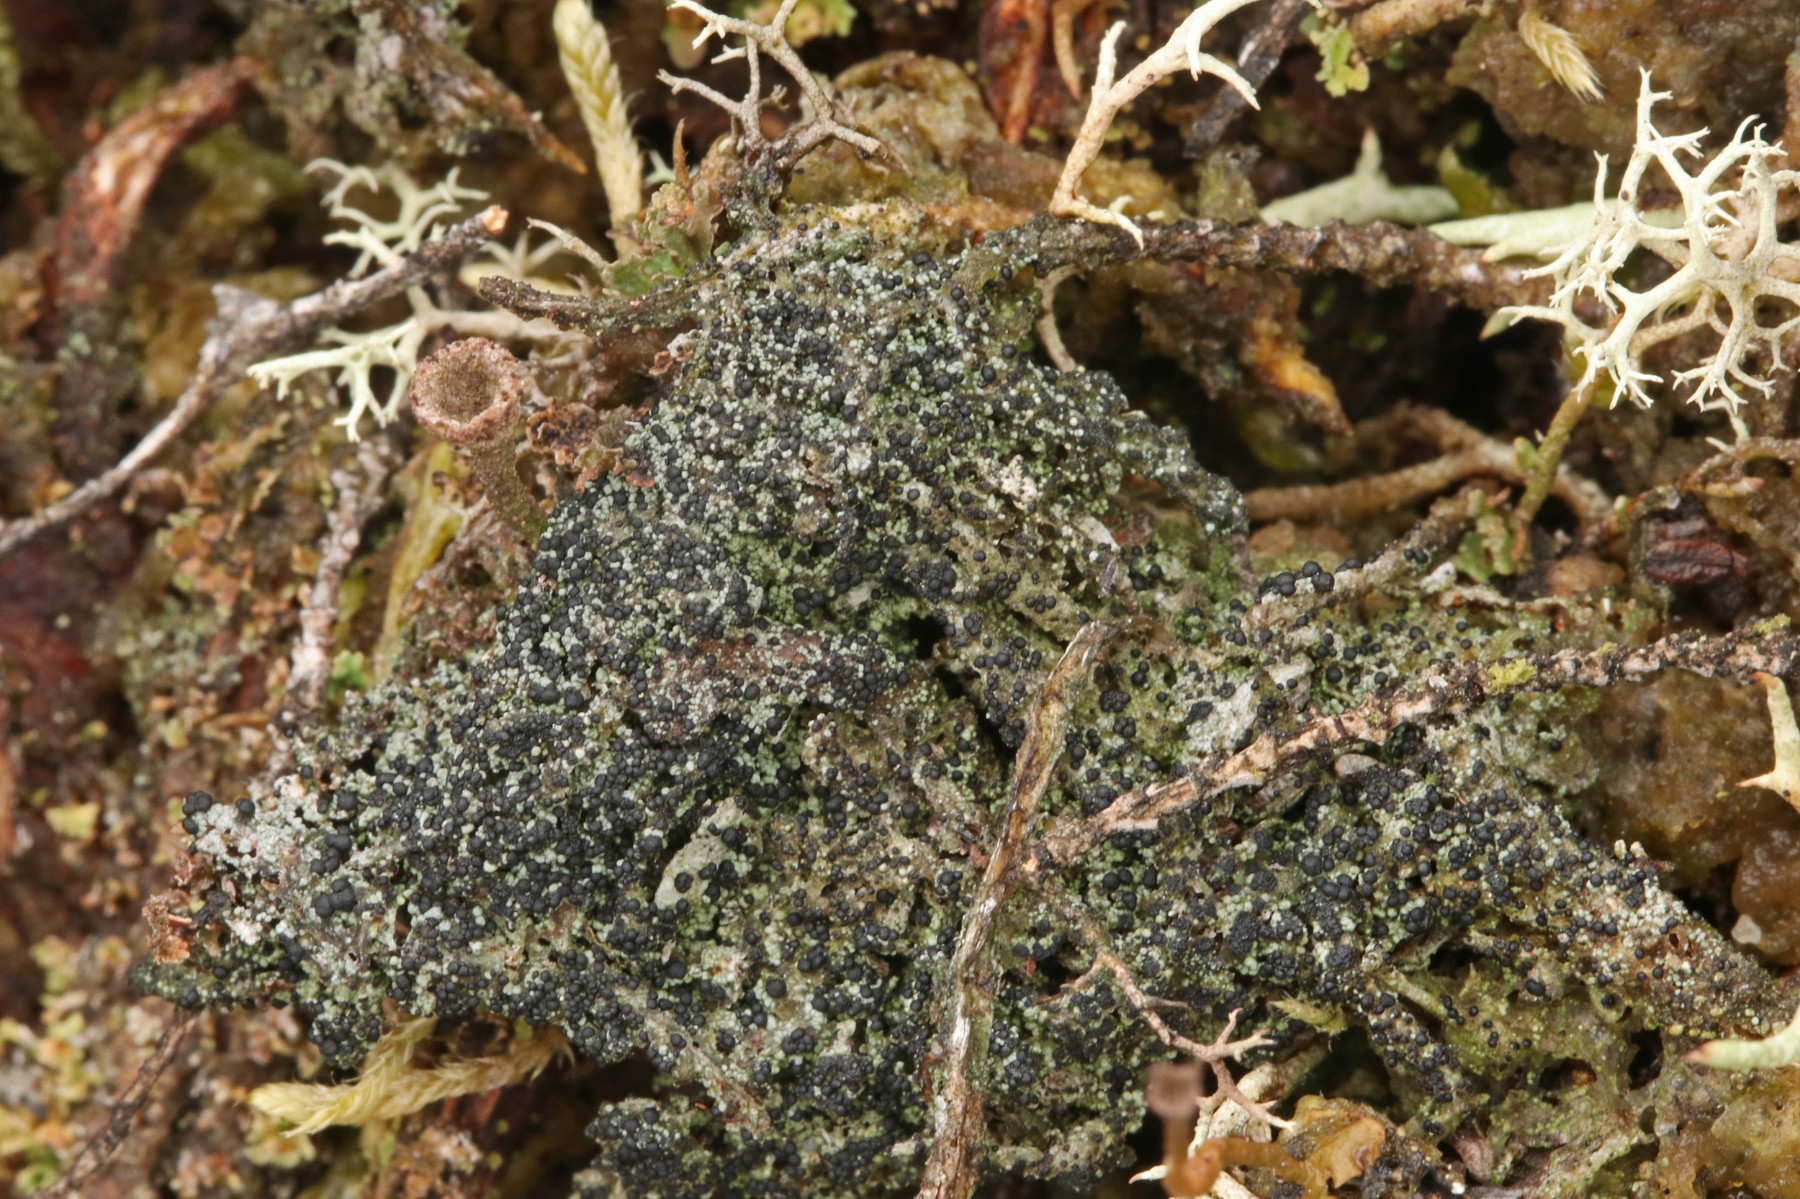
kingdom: Fungi
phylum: Ascomycota
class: Lecanoromycetes
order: Lecanorales
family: Byssolomataceae
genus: Micarea
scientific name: Micarea lignaria
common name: tørve-knaplav
